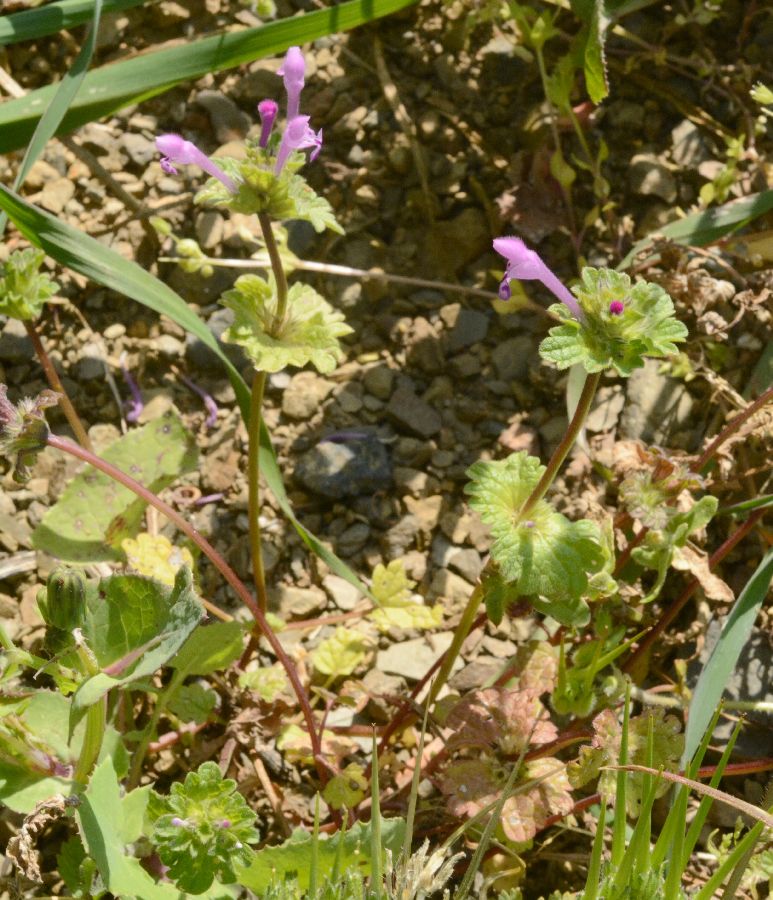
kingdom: Plantae
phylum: Tracheophyta
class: Magnoliopsida
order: Lamiales
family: Lamiaceae
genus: Lamium
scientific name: Lamium amplexicaule
